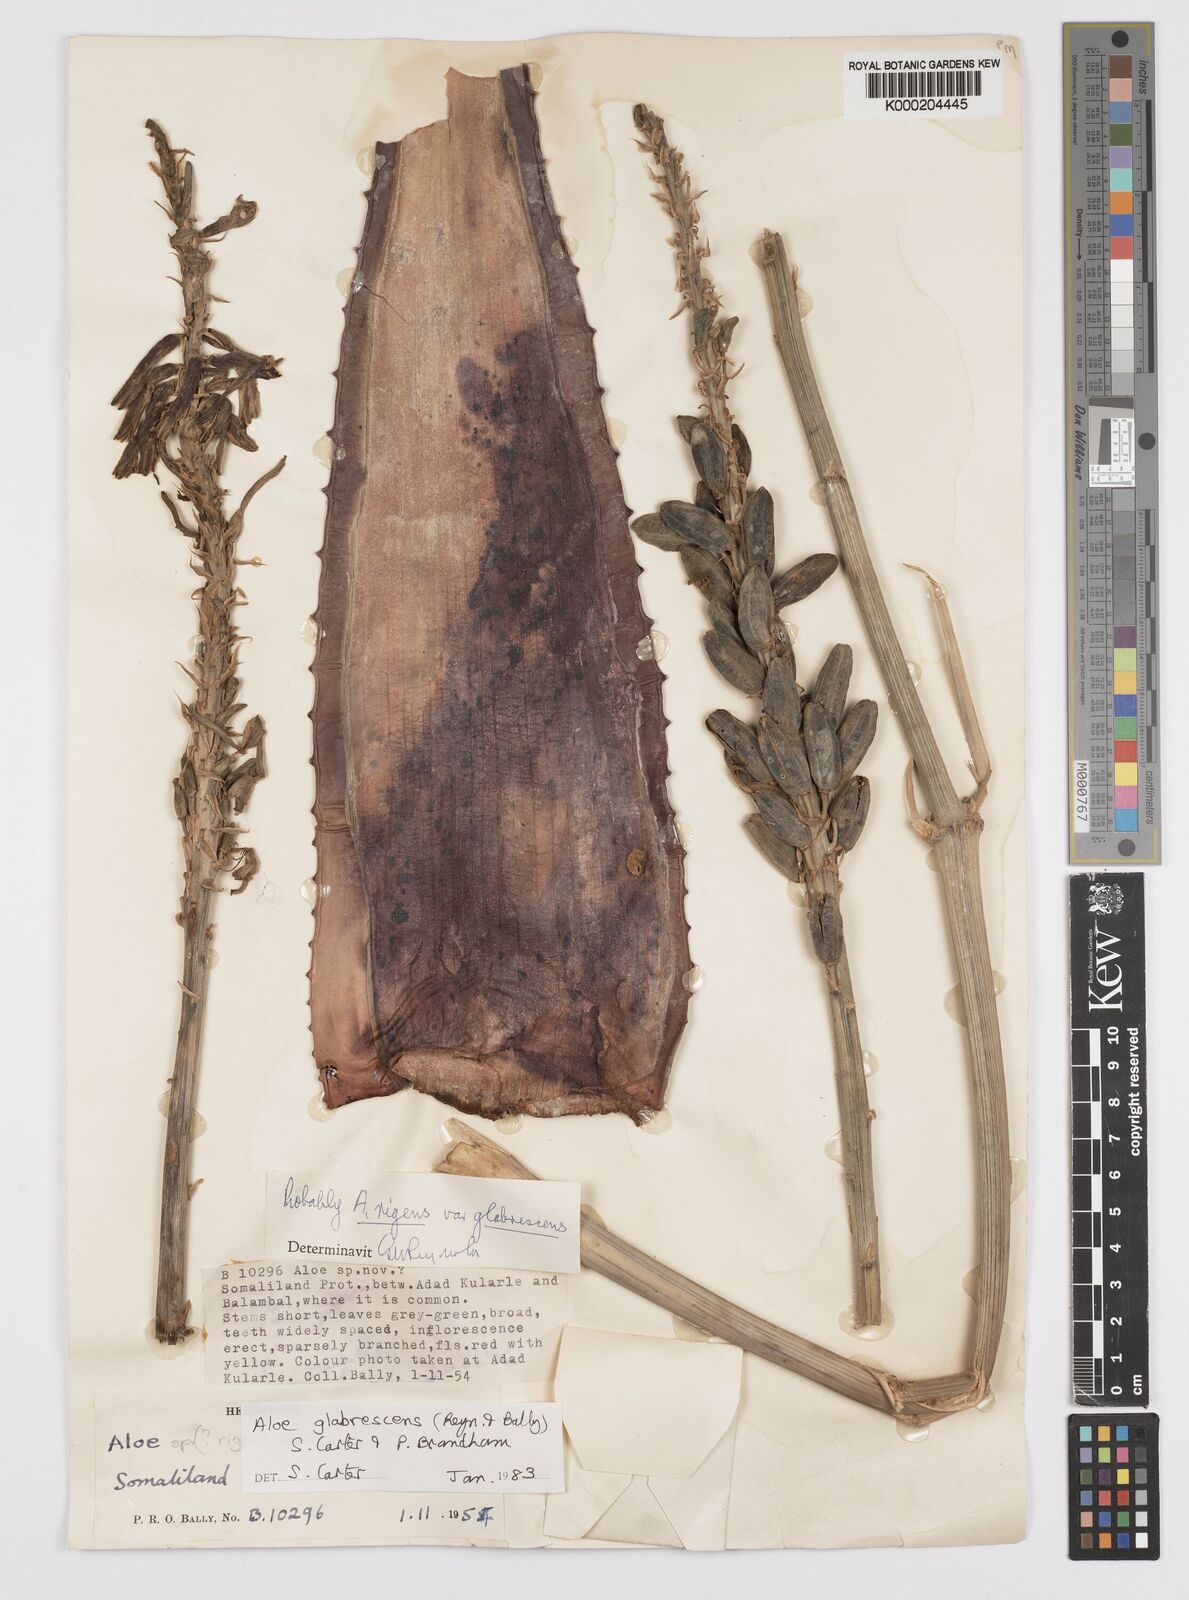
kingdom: Plantae
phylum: Tracheophyta
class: Liliopsida
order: Asparagales
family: Asphodelaceae
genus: Aloe
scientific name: Aloe glabrescens
